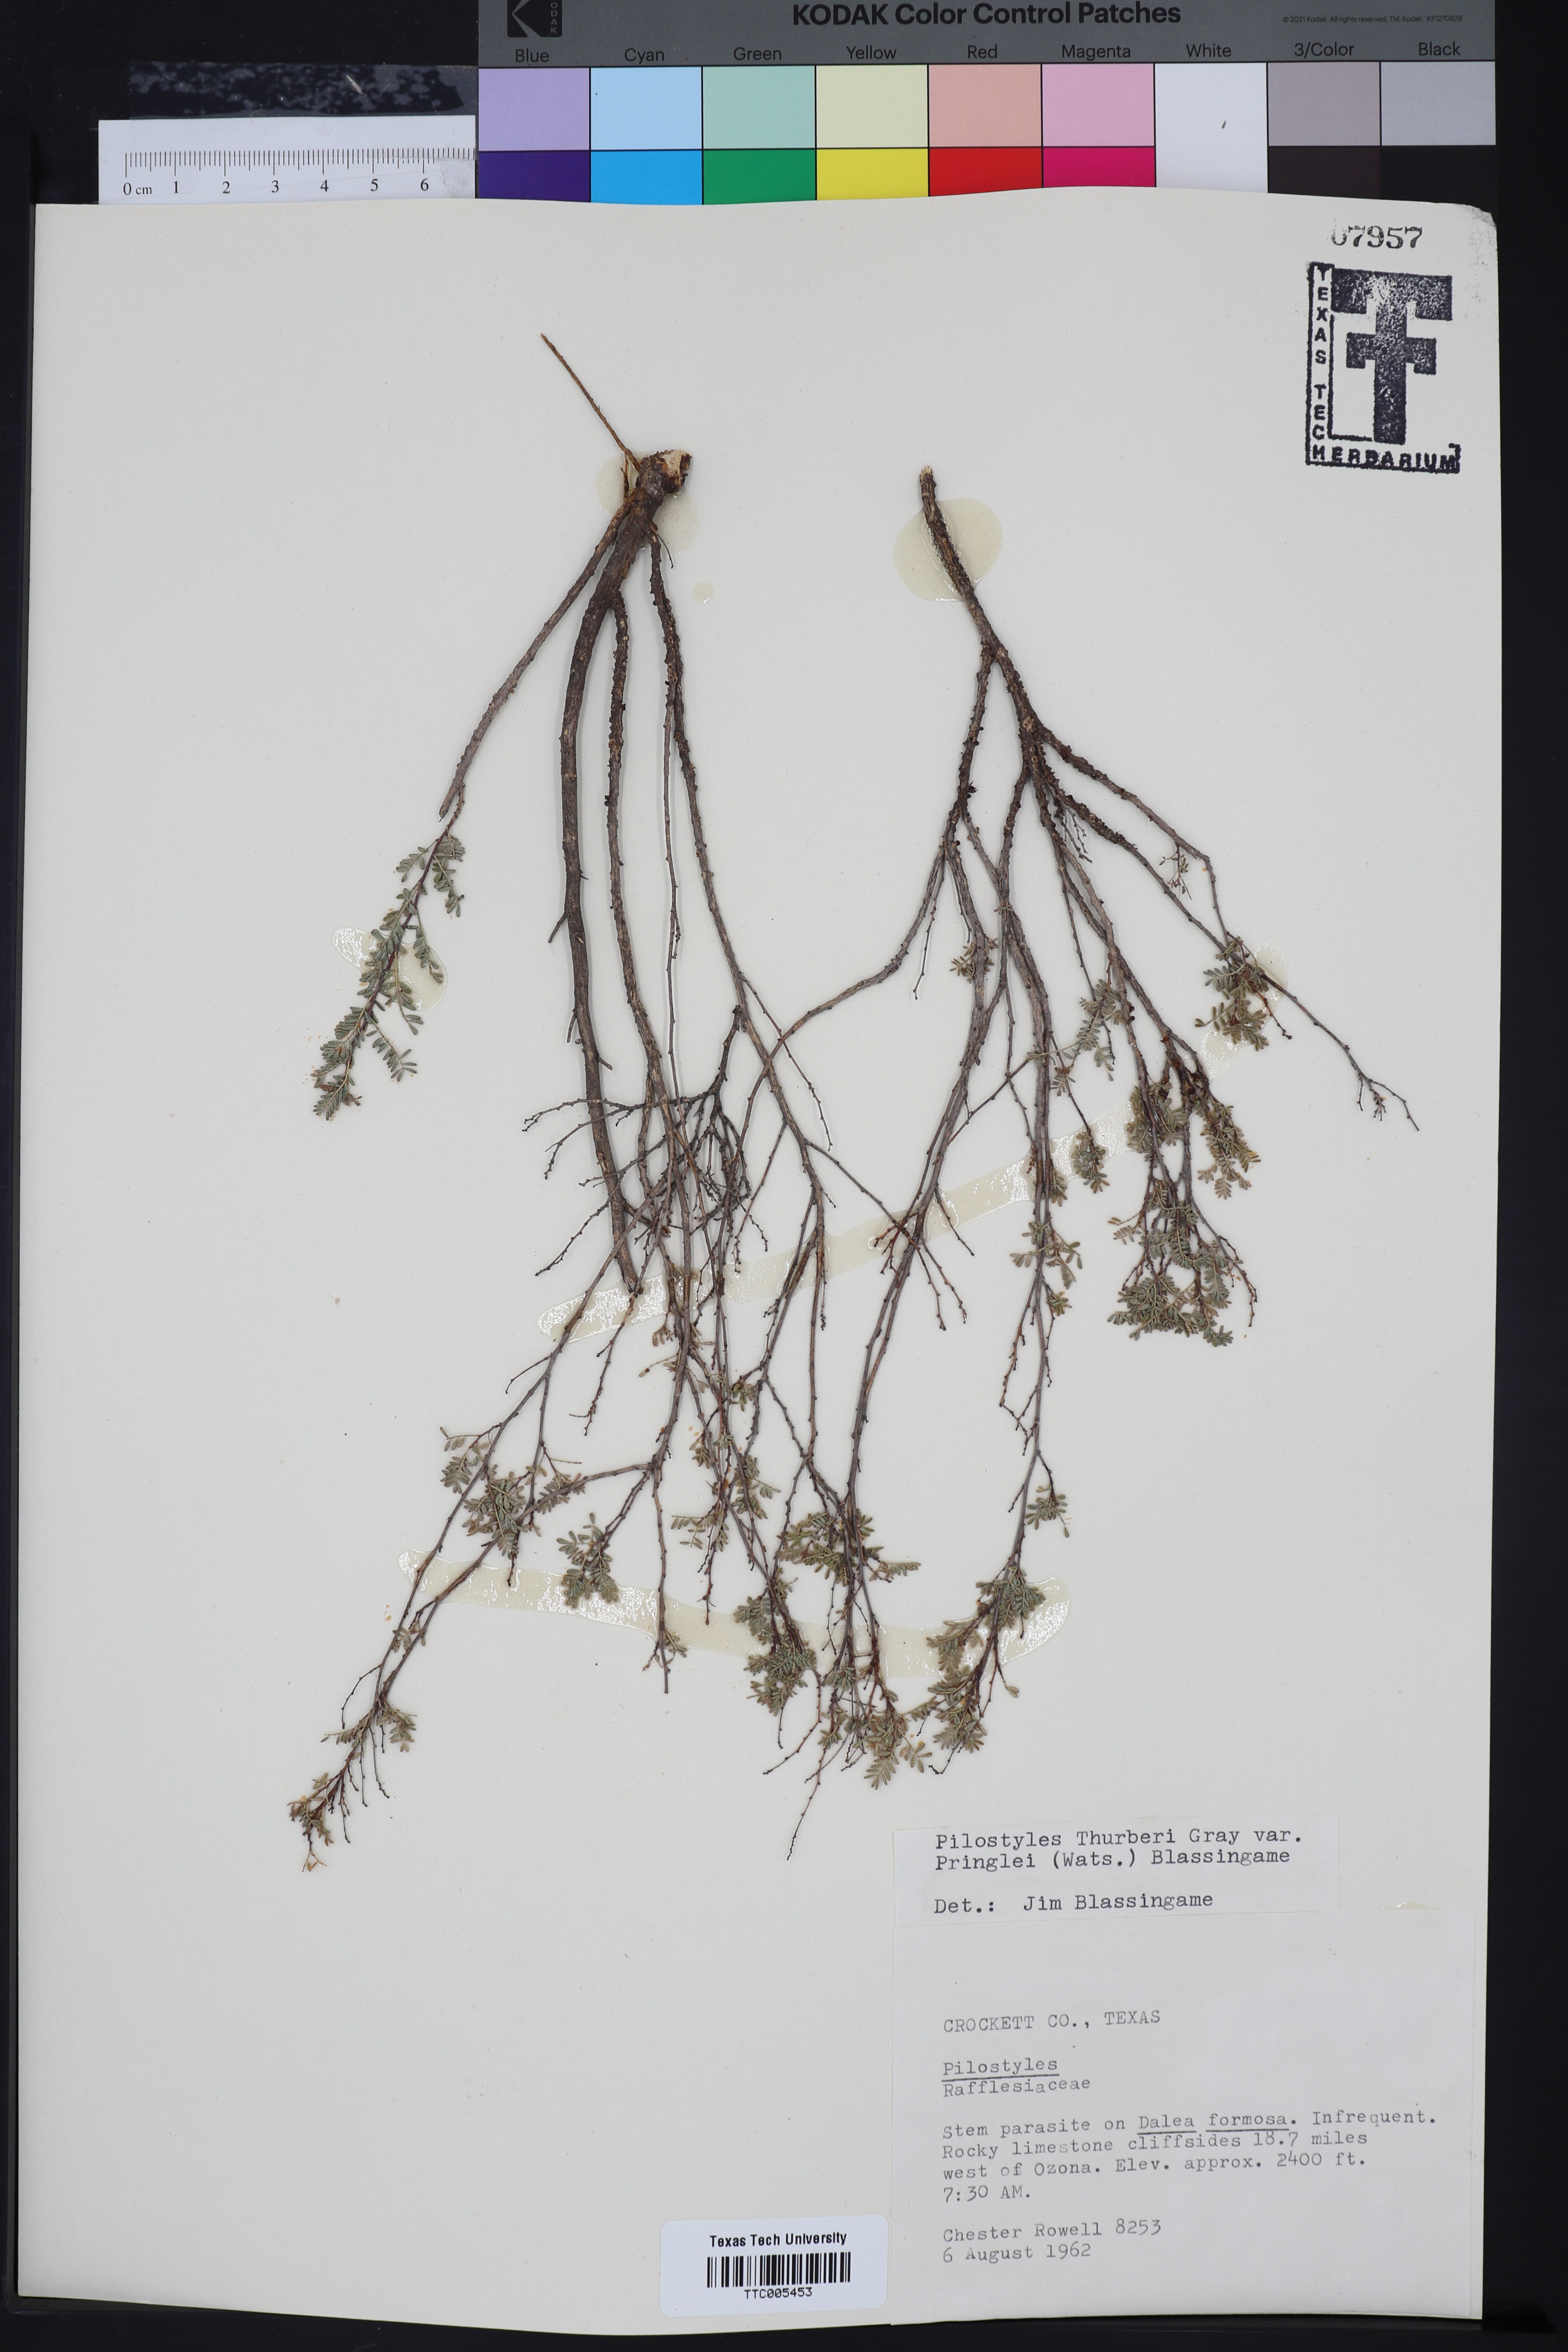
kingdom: Plantae
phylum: Tracheophyta
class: Magnoliopsida
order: Cucurbitales
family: Apodanthaceae
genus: Pilostyles
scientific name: Pilostyles thurberi
